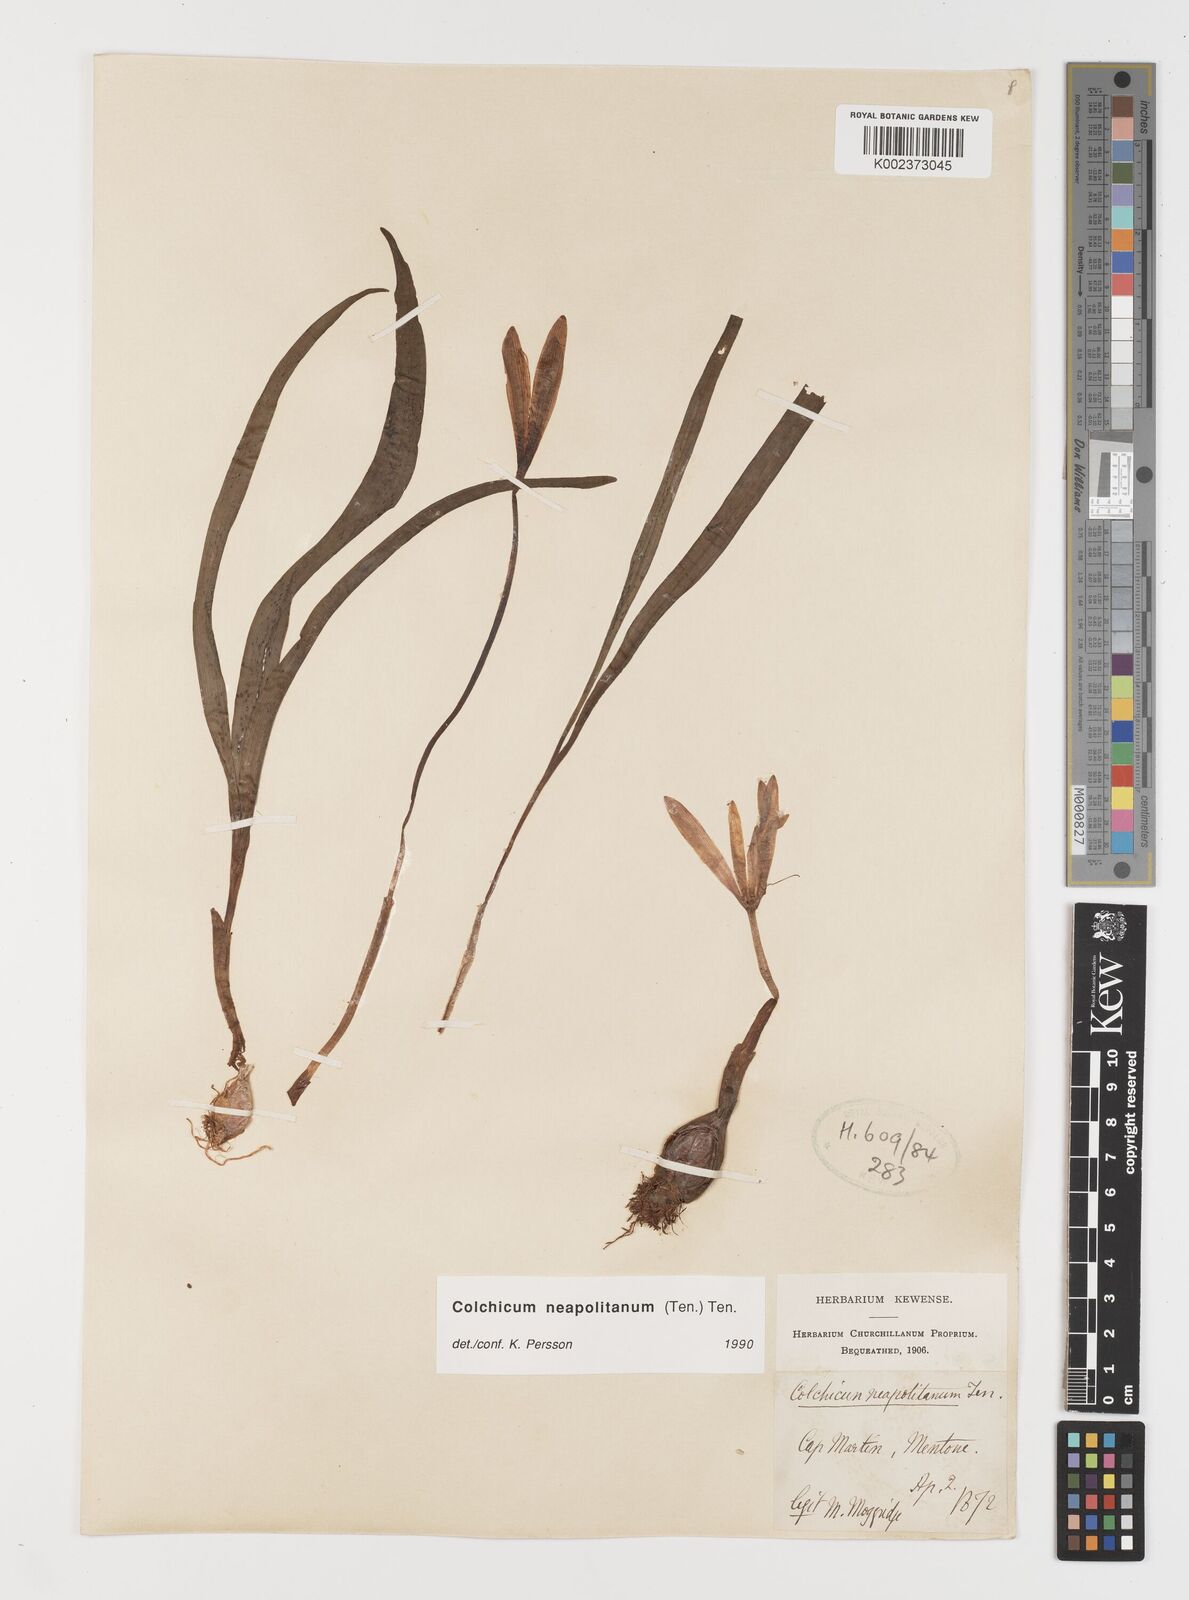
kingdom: Plantae
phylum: Tracheophyta
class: Liliopsida
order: Liliales
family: Colchicaceae
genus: Colchicum
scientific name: Colchicum neapolitanum
